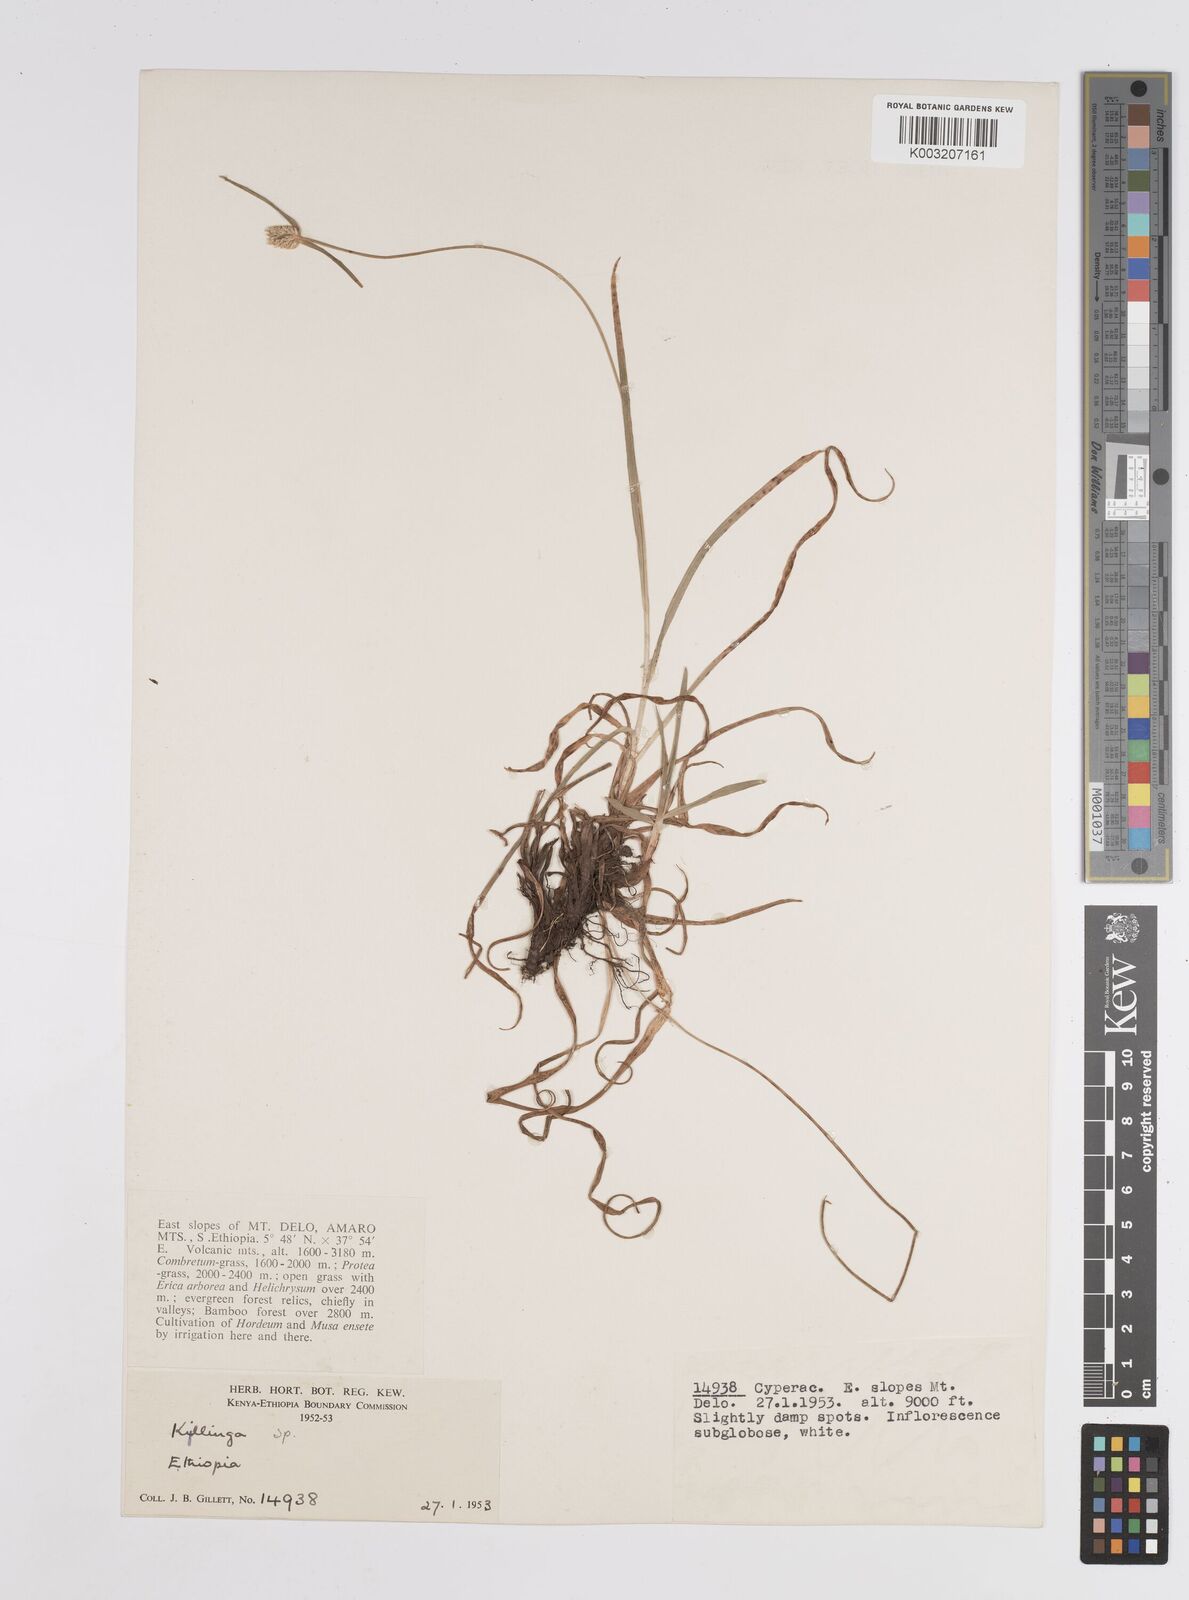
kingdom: Plantae
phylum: Tracheophyta
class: Liliopsida
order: Poales
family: Cyperaceae
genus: Cyperus
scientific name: Cyperus
